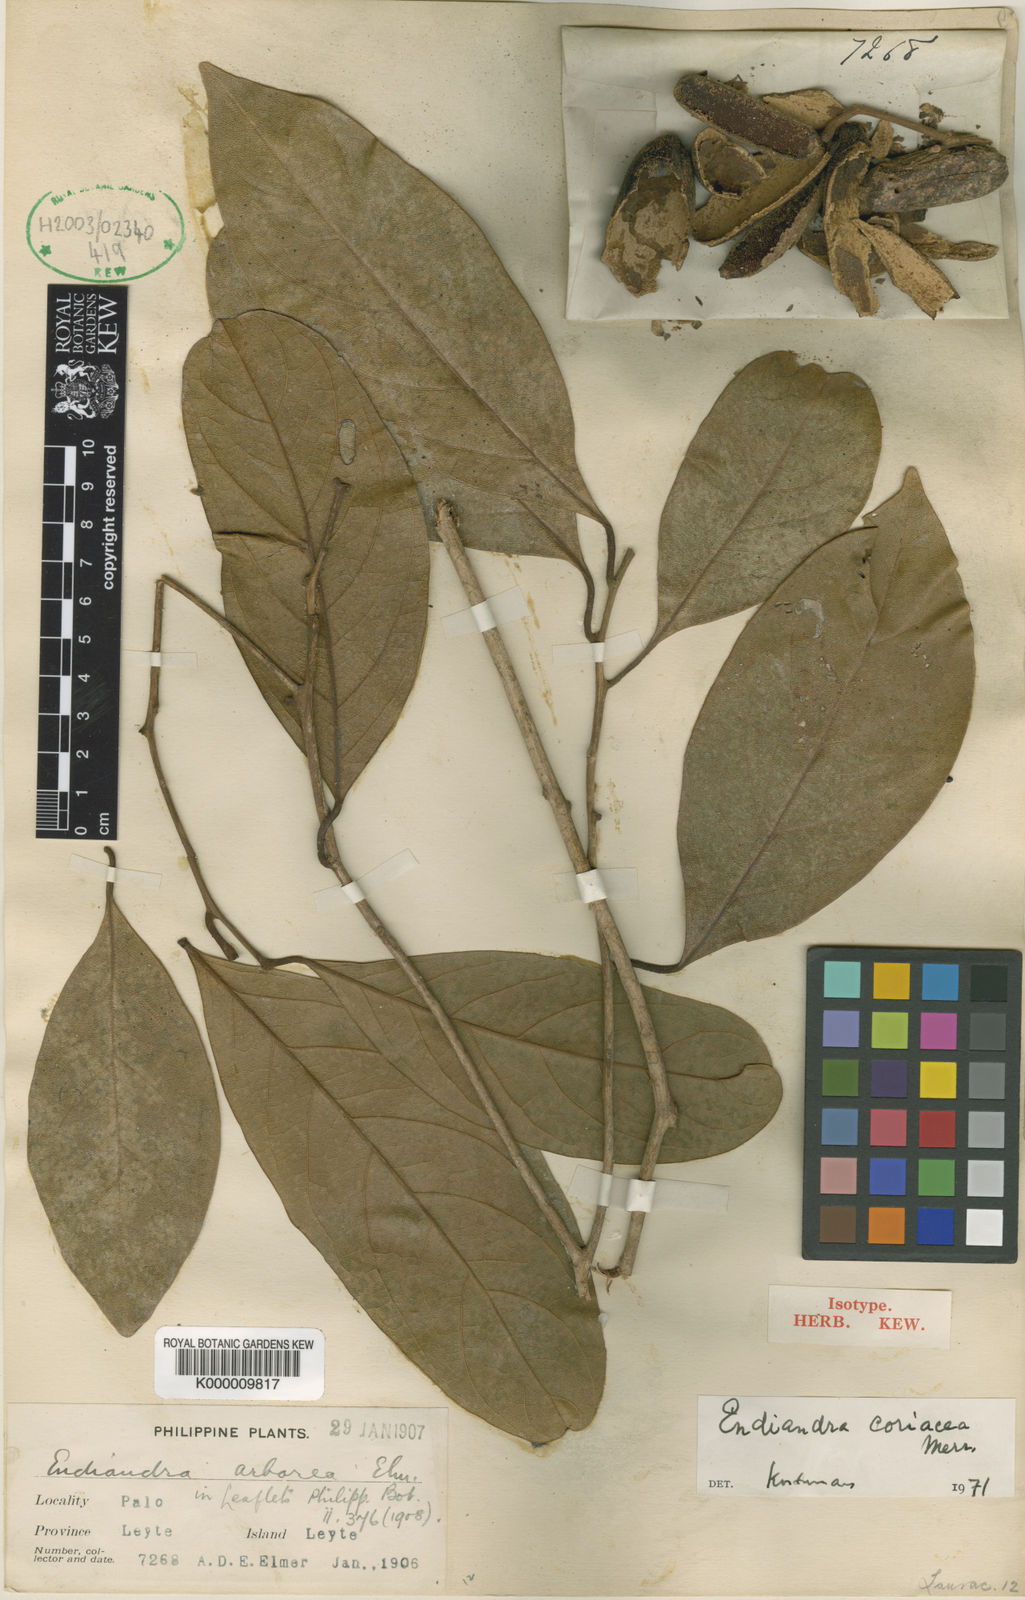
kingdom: Plantae
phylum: Tracheophyta
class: Magnoliopsida
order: Laurales
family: Lauraceae
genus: Endiandra
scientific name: Endiandra coriacea
